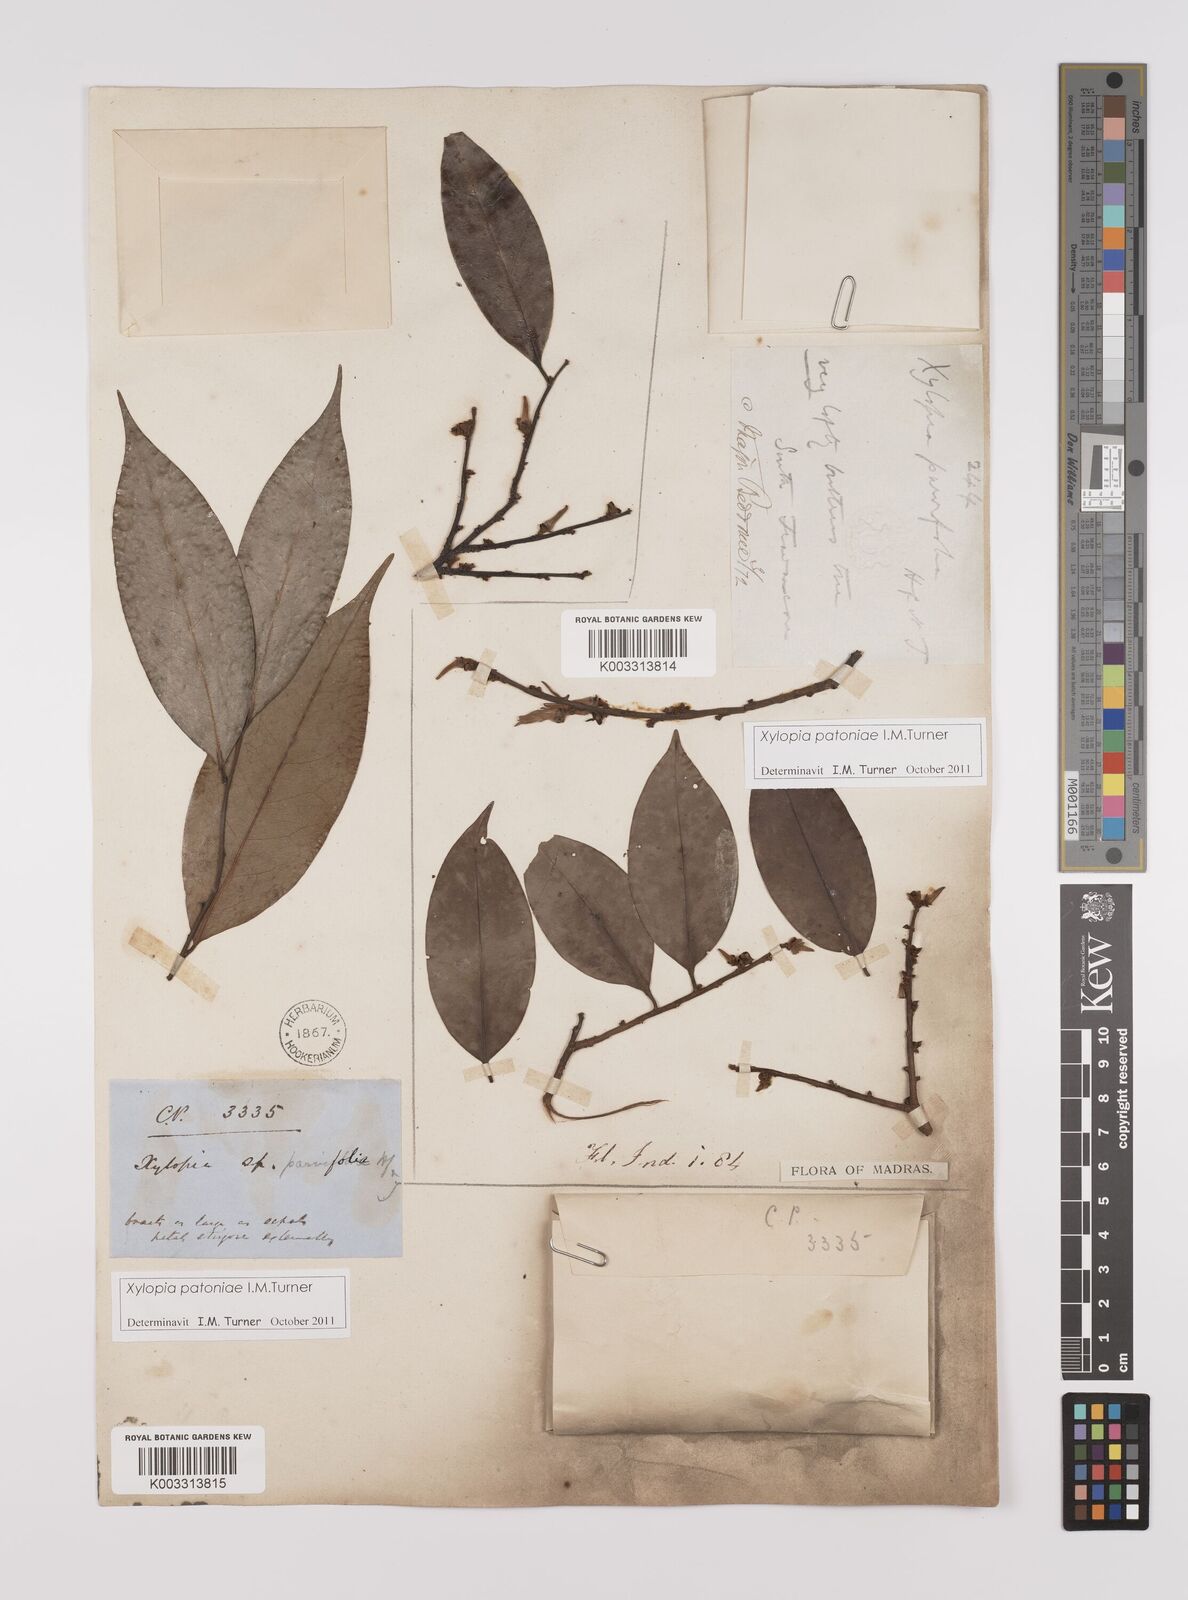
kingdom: Plantae
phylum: Tracheophyta
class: Magnoliopsida
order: Magnoliales
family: Annonaceae
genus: Xylopia
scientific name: Xylopia
